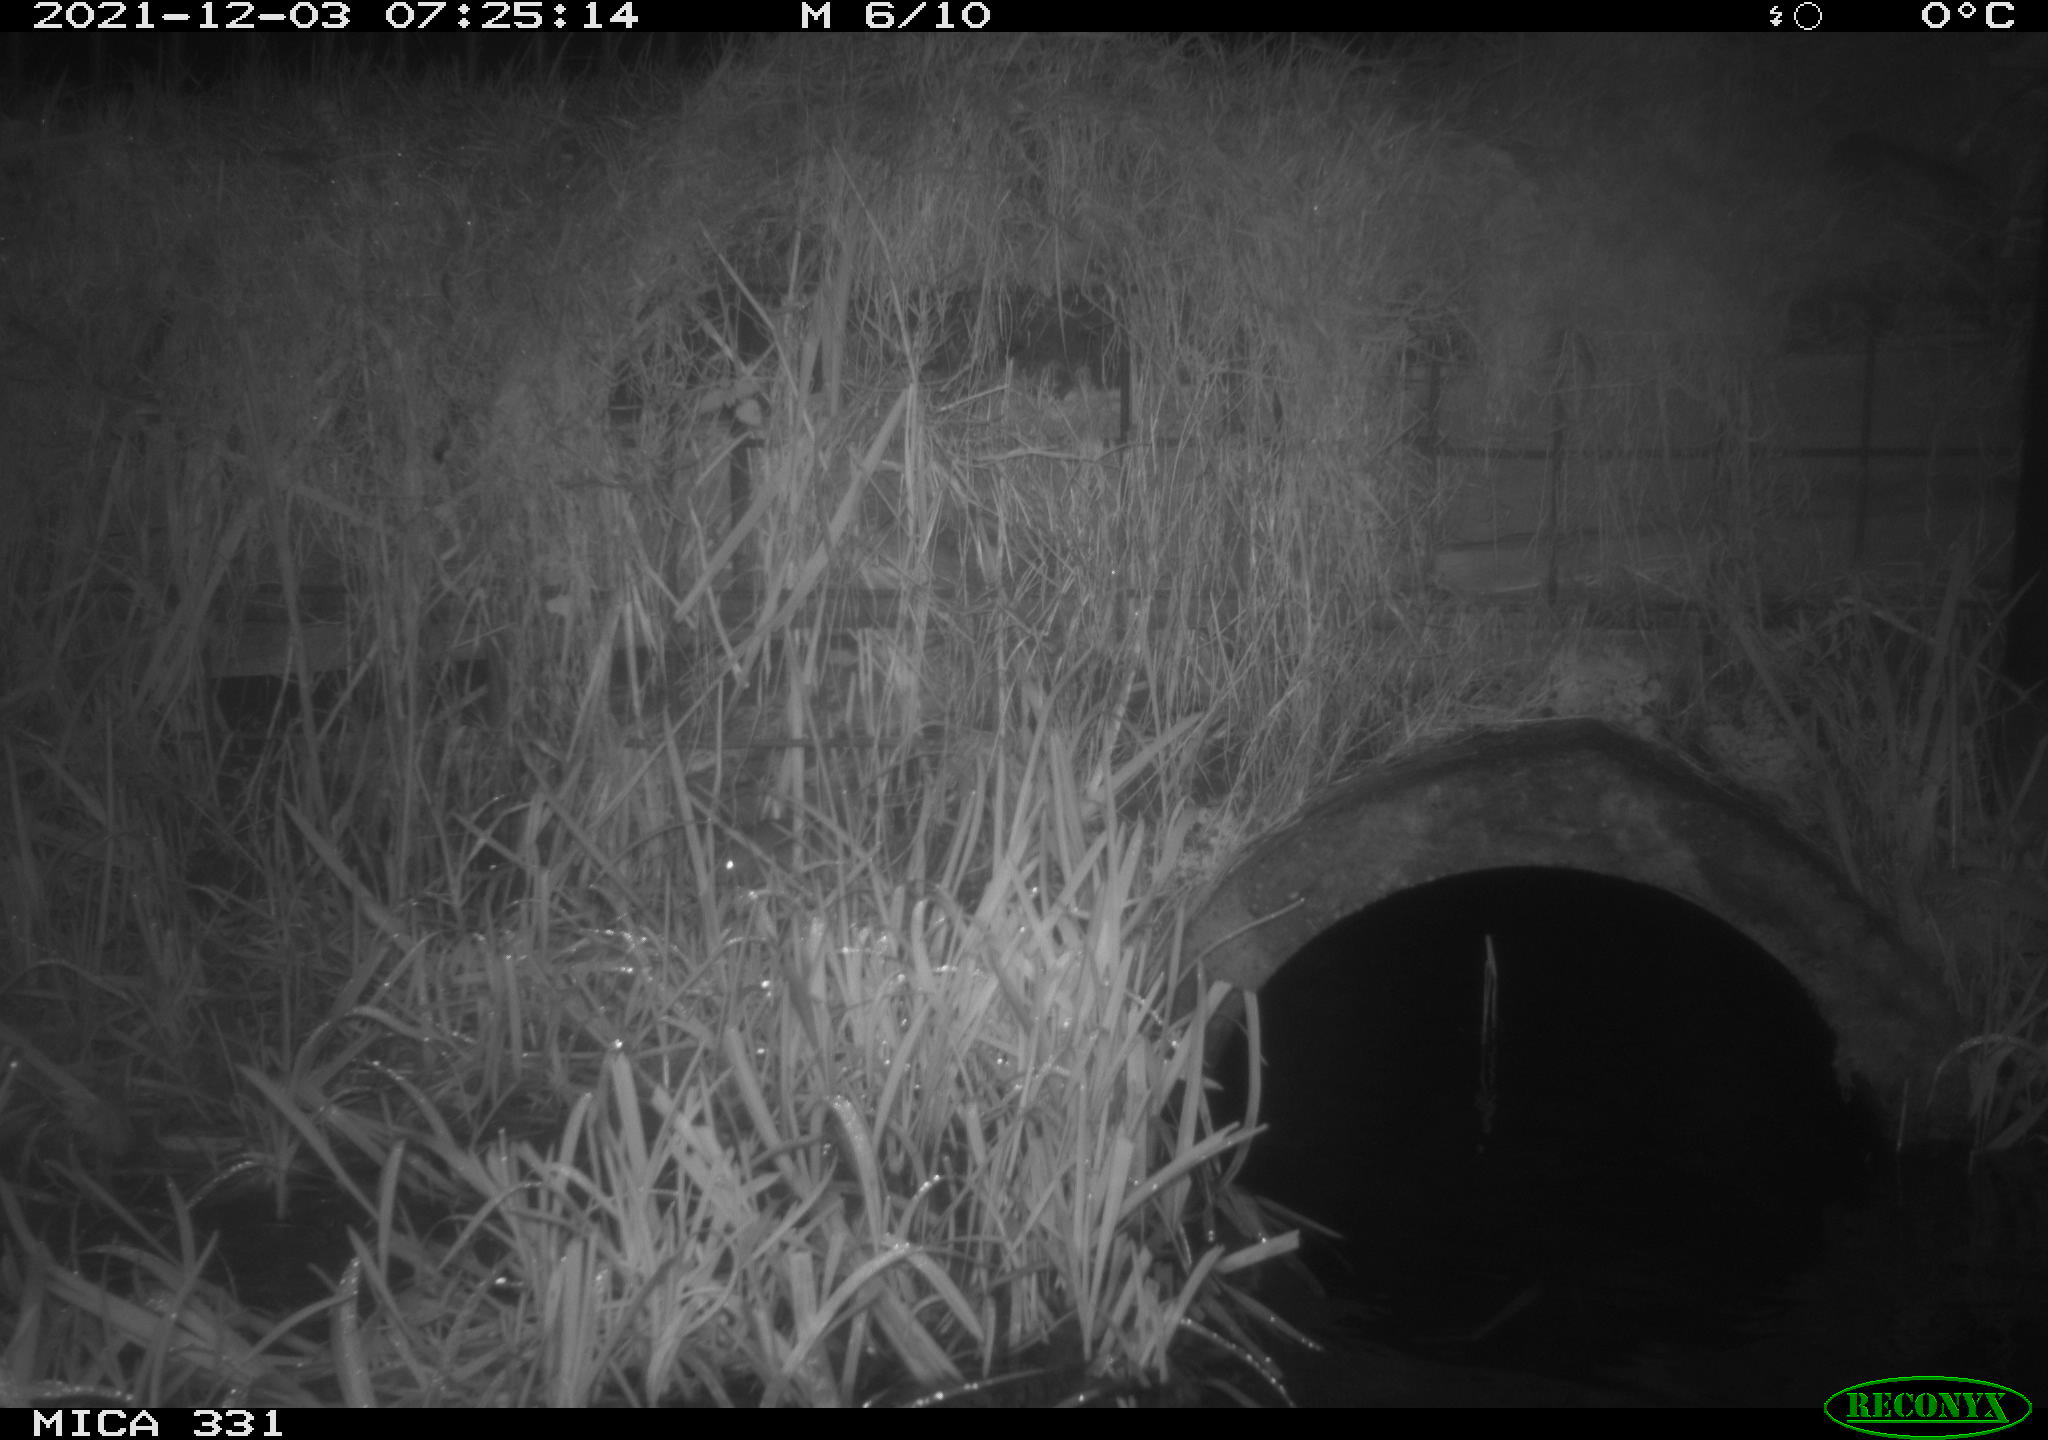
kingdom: Animalia
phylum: Chordata
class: Mammalia
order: Rodentia
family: Muridae
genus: Rattus
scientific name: Rattus norvegicus
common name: Brown rat
